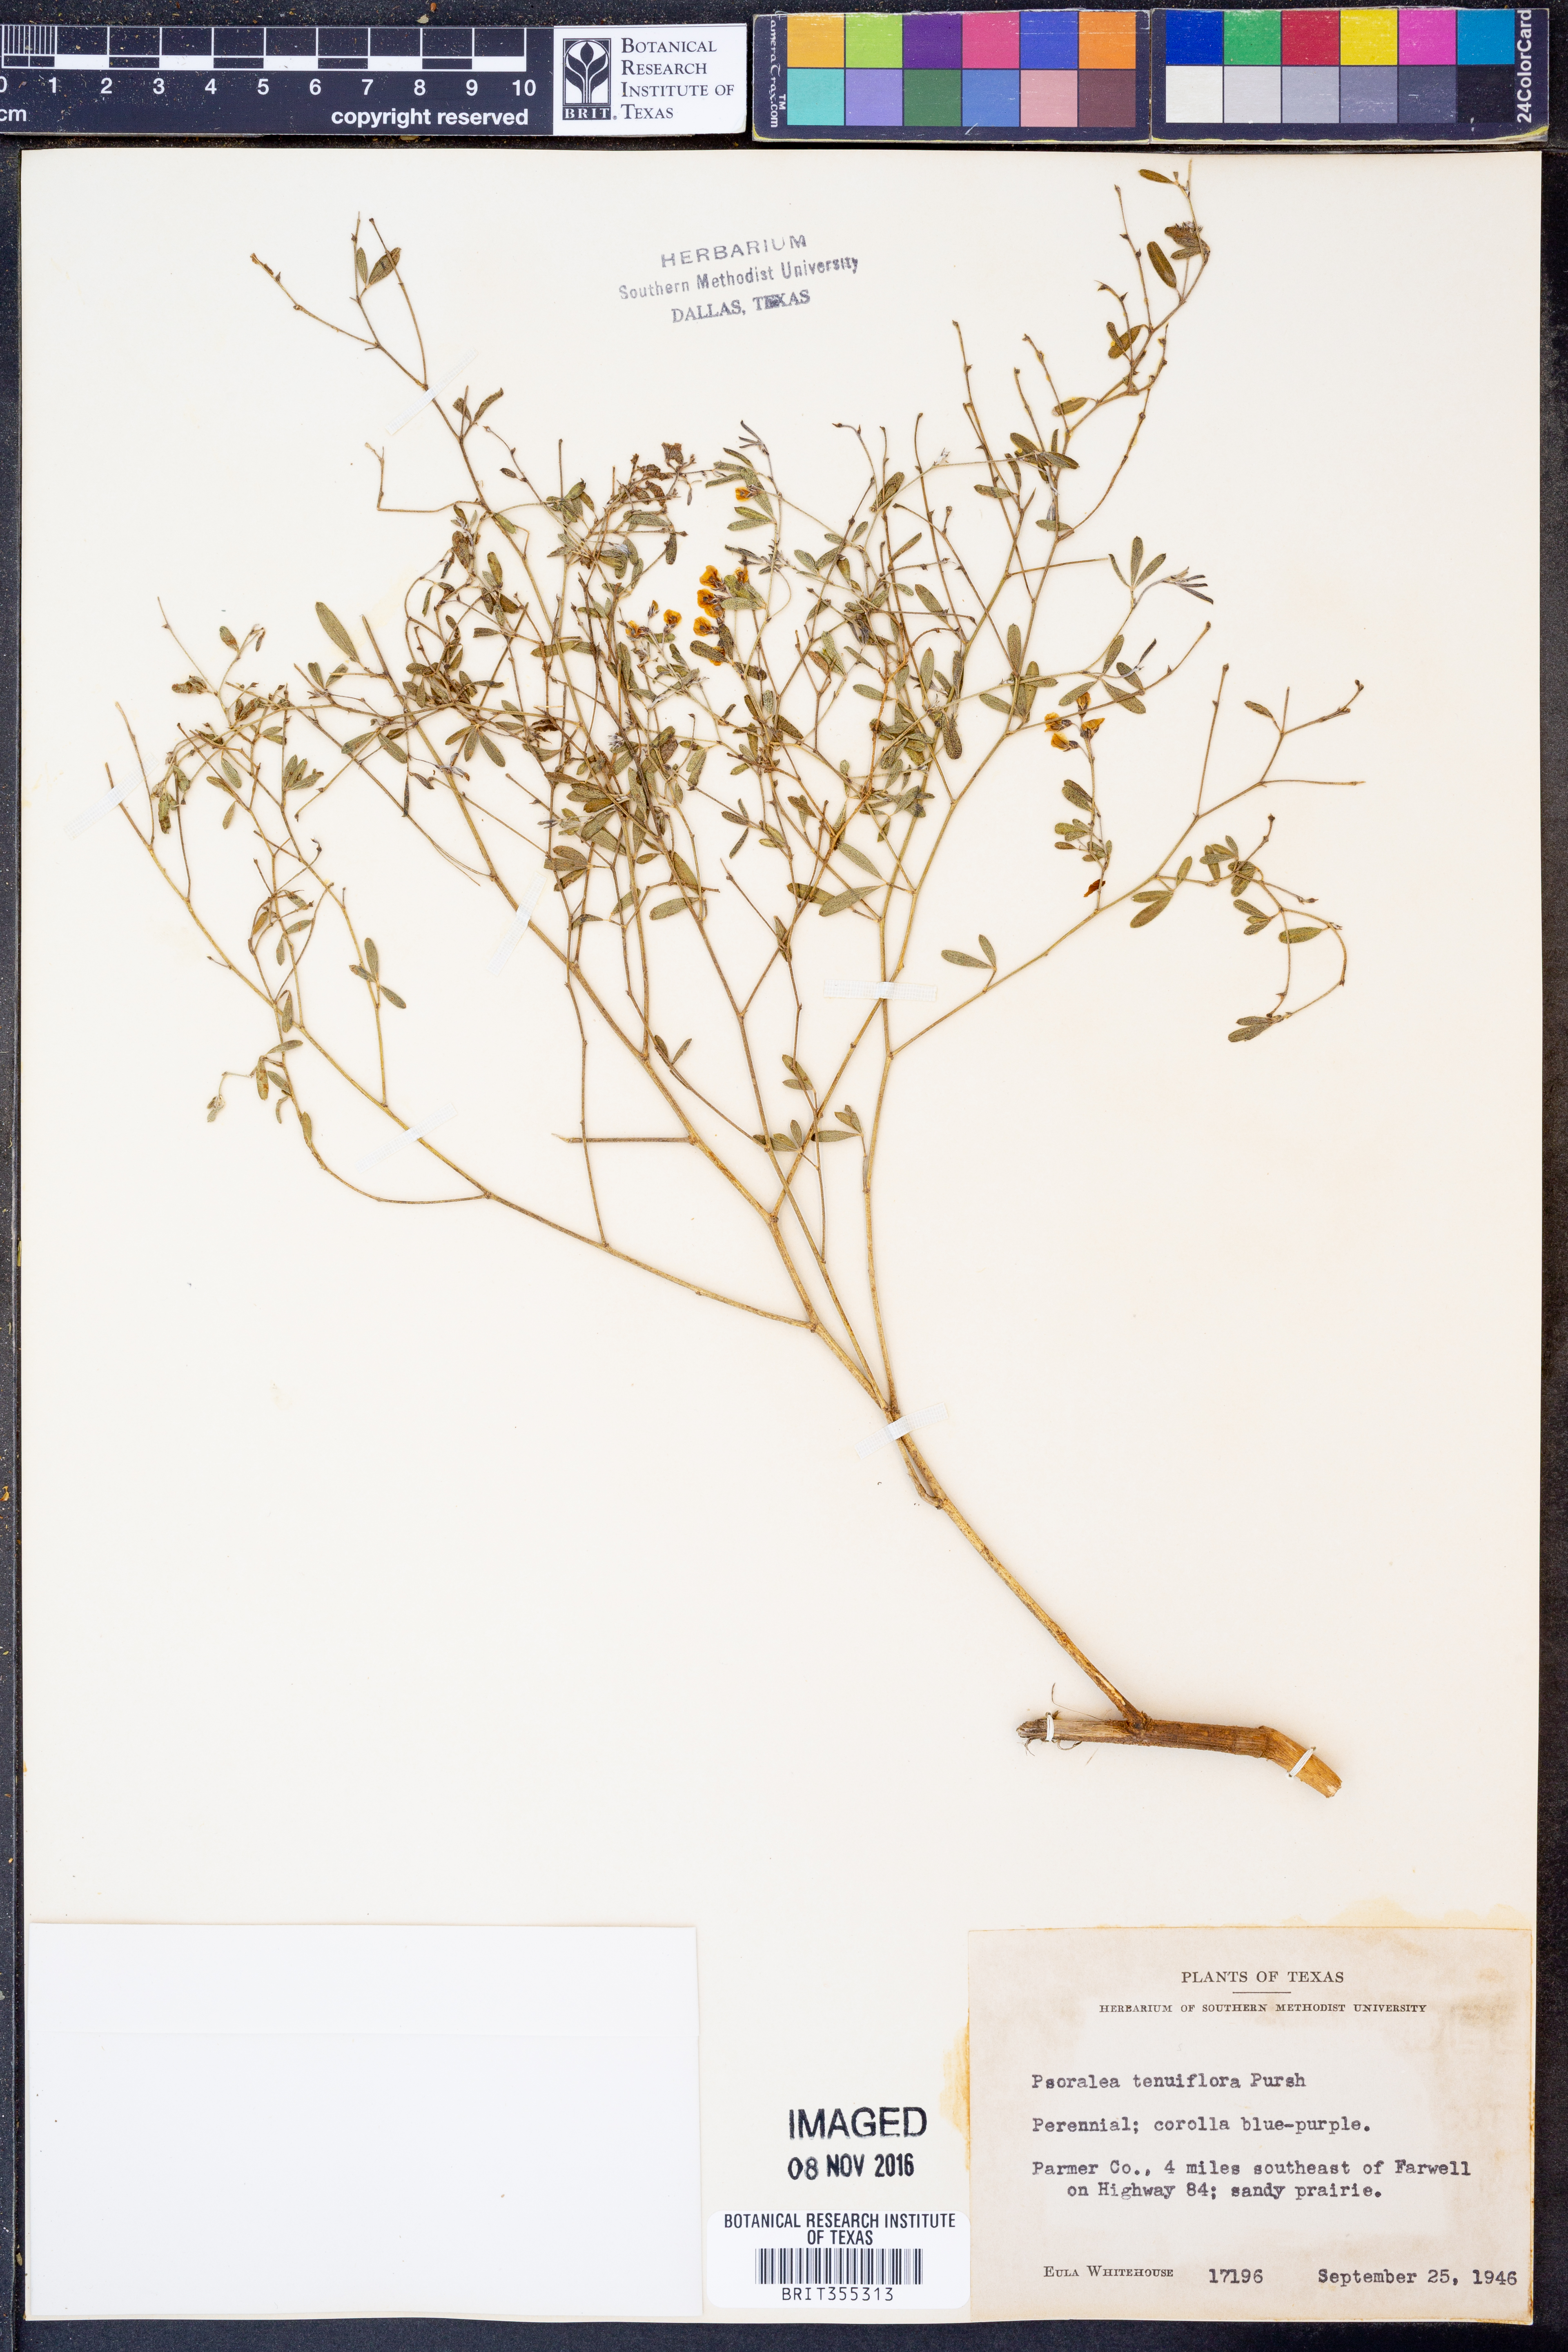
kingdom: Plantae
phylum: Tracheophyta
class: Magnoliopsida
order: Fabales
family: Fabaceae
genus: Pediomelum
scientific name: Pediomelum tenuiflorum
